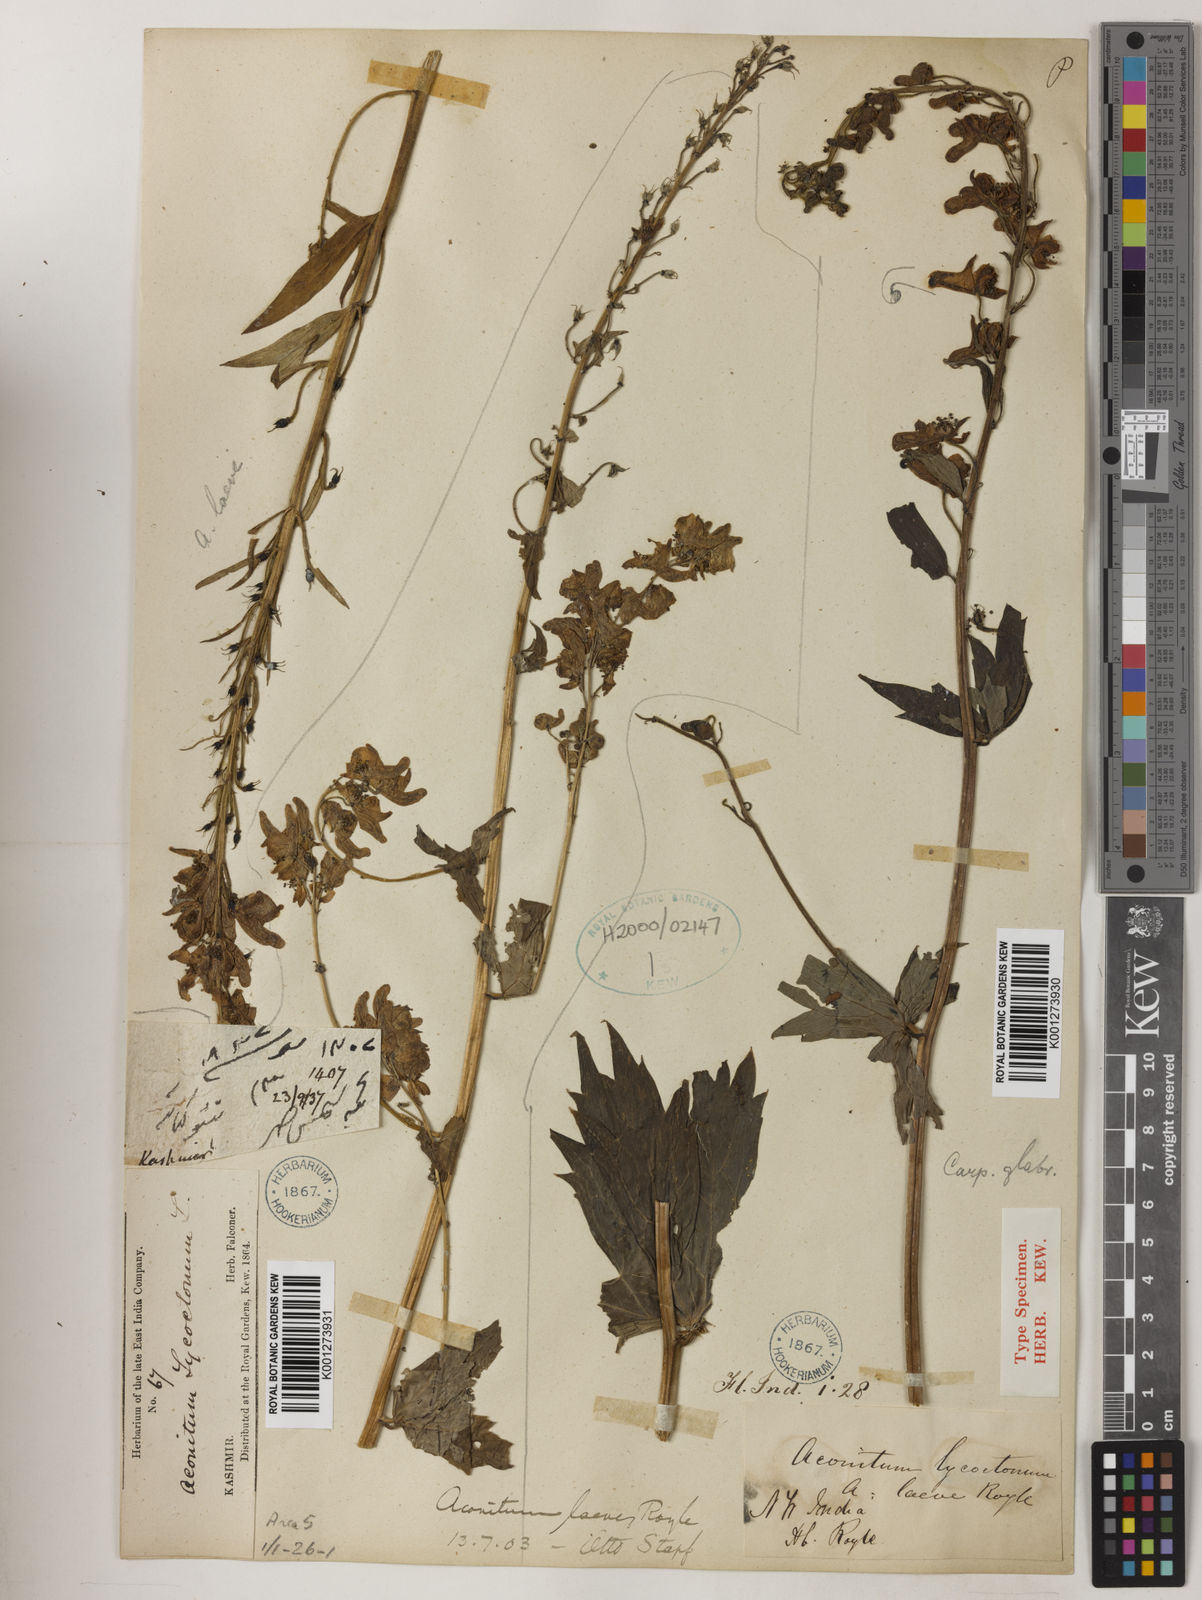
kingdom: Plantae
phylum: Tracheophyta
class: Magnoliopsida
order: Ranunculales
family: Ranunculaceae
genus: Aconitum
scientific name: Aconitum lycoctonum
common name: Wolf's-bane
